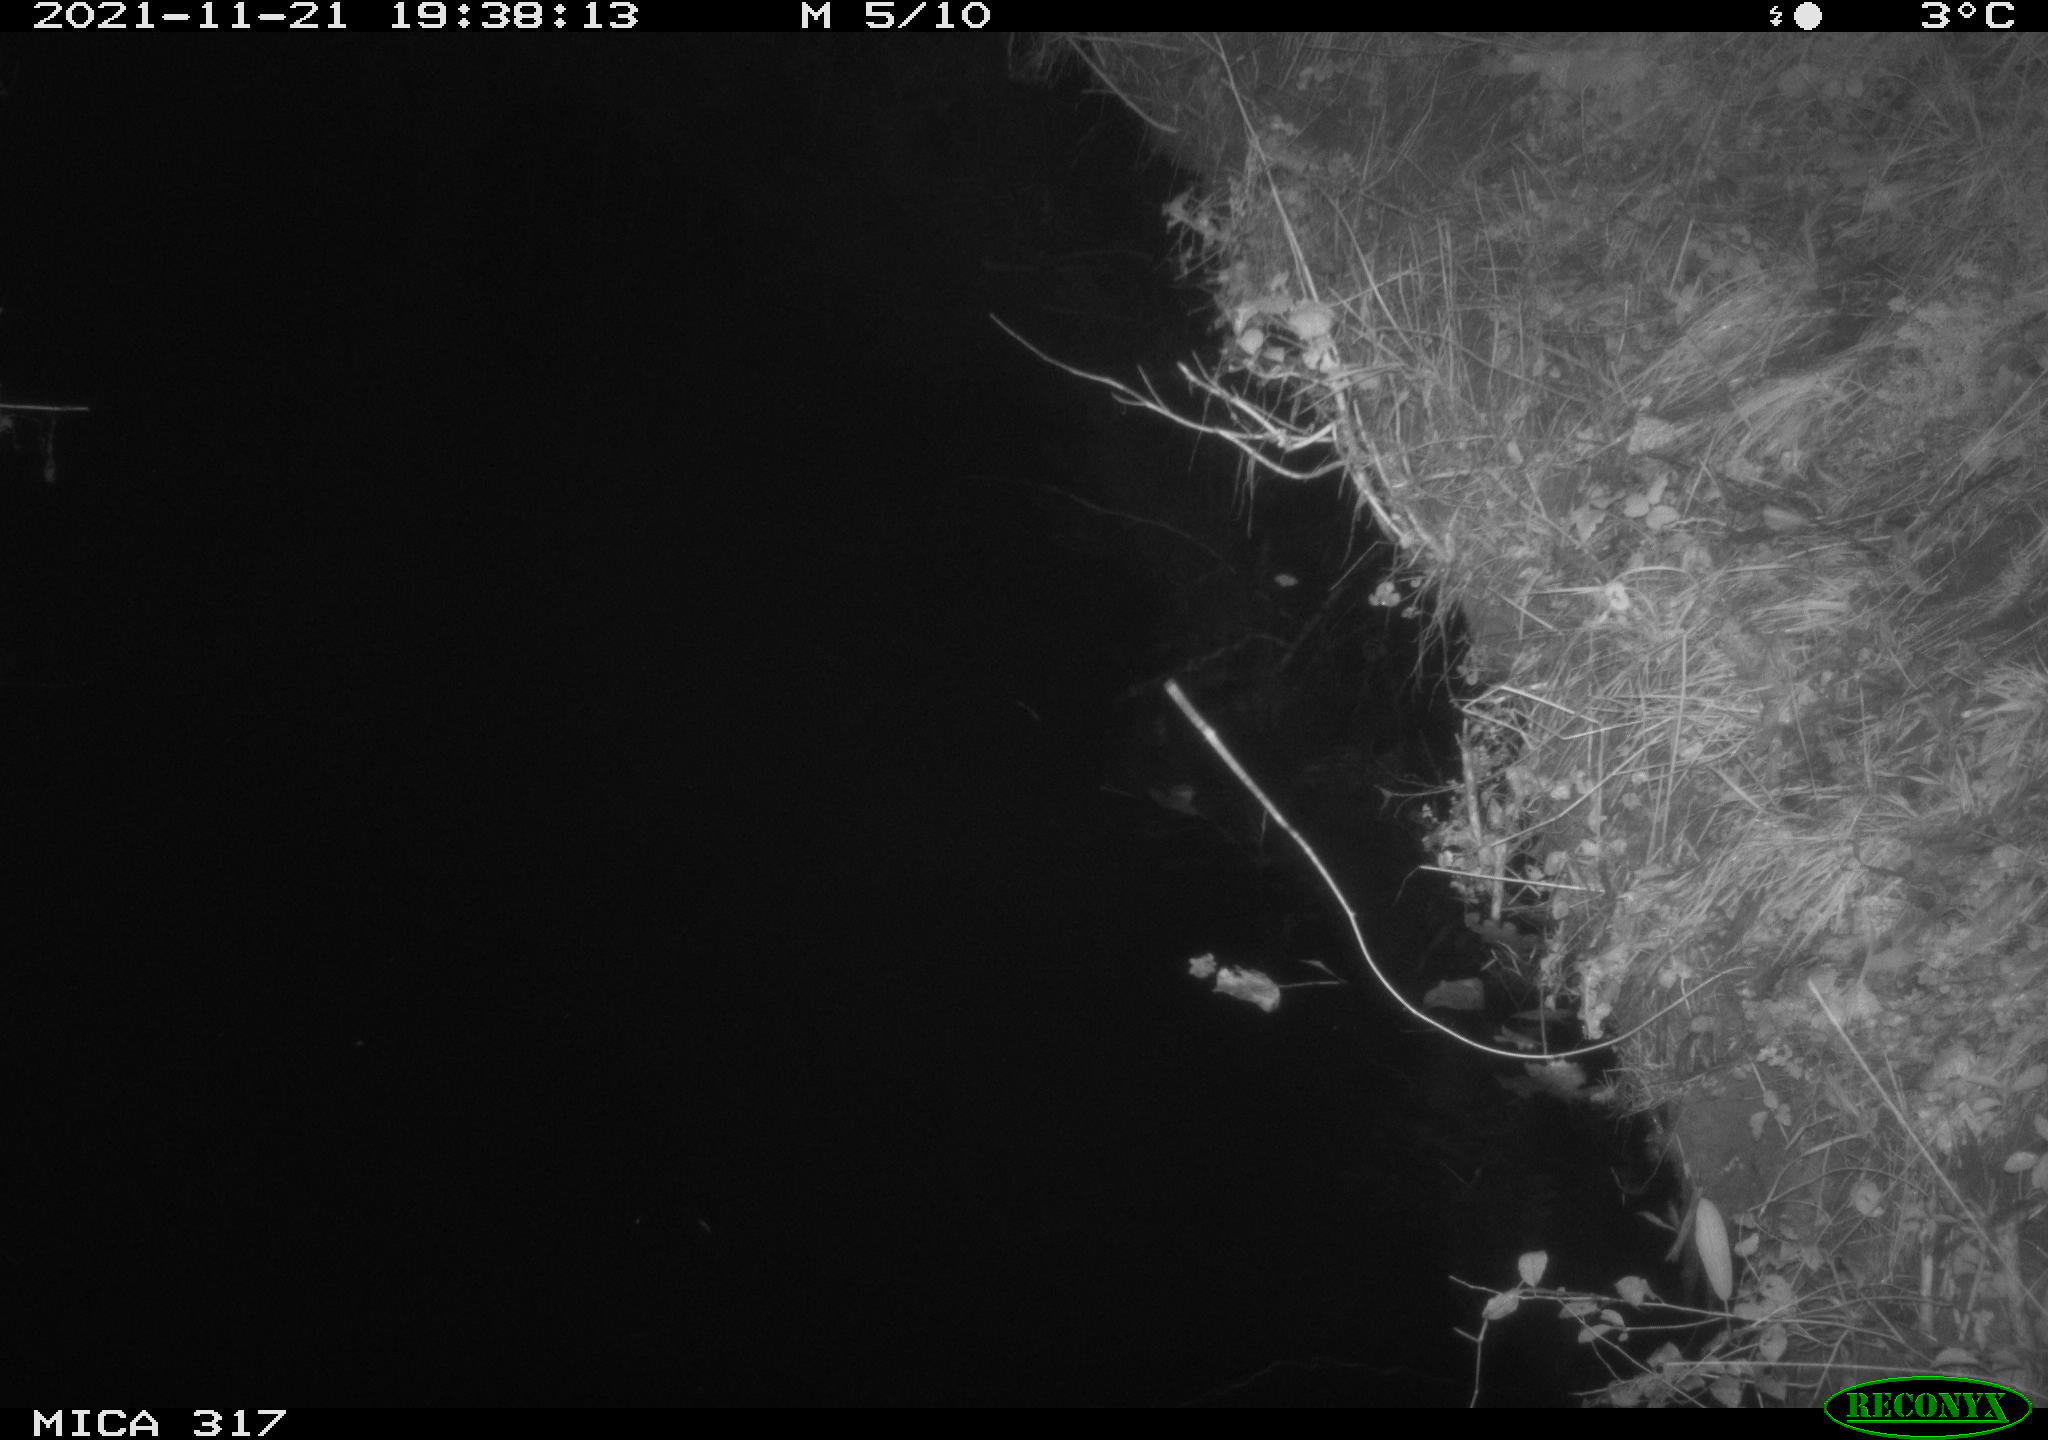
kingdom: Animalia
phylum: Chordata
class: Mammalia
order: Carnivora
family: Canidae
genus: Vulpes
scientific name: Vulpes vulpes
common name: Red fox
